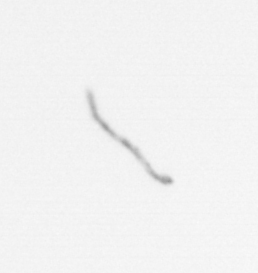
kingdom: Chromista
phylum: Ochrophyta
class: Bacillariophyceae
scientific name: Bacillariophyceae
